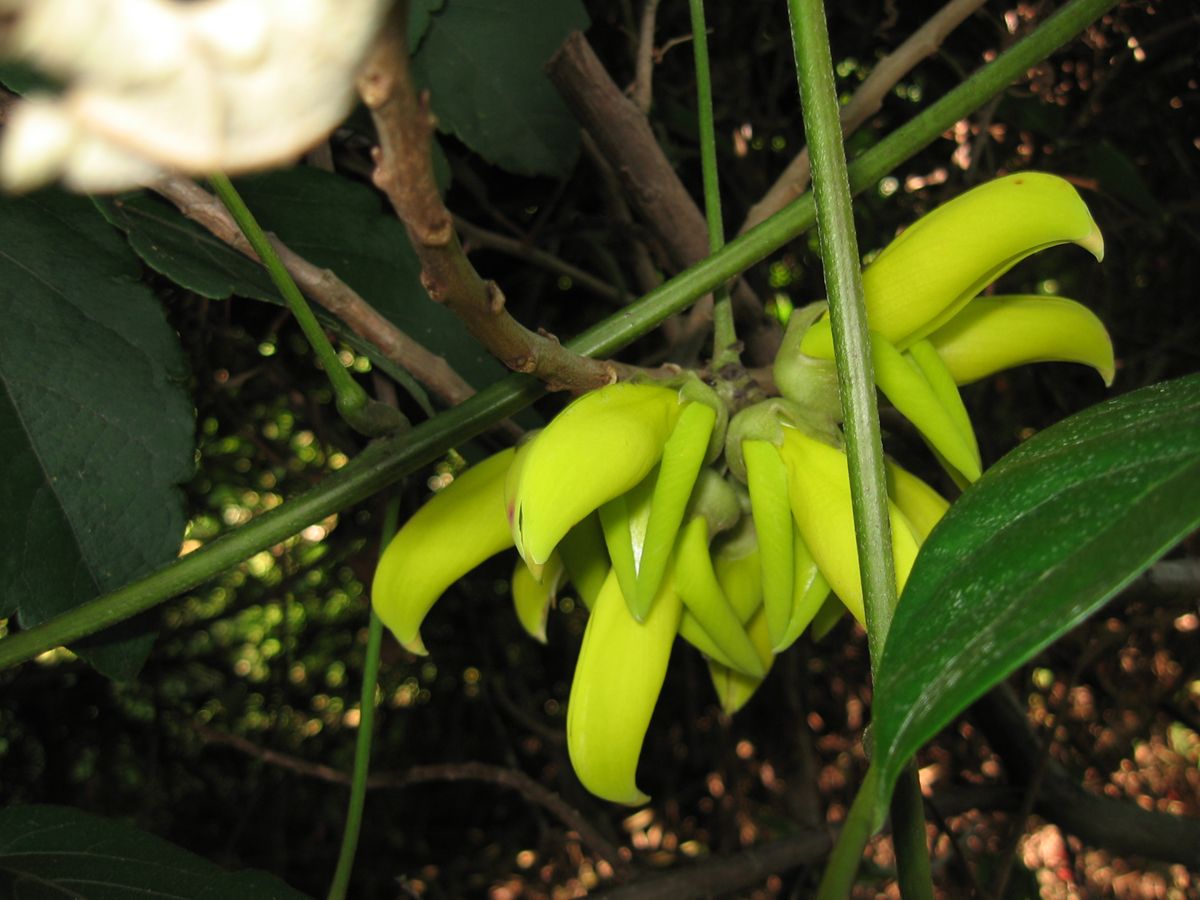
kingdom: Plantae
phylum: Tracheophyta
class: Magnoliopsida
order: Fabales
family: Fabaceae
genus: Mucuna
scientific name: Mucuna sloanei
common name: Horse-eye bean
